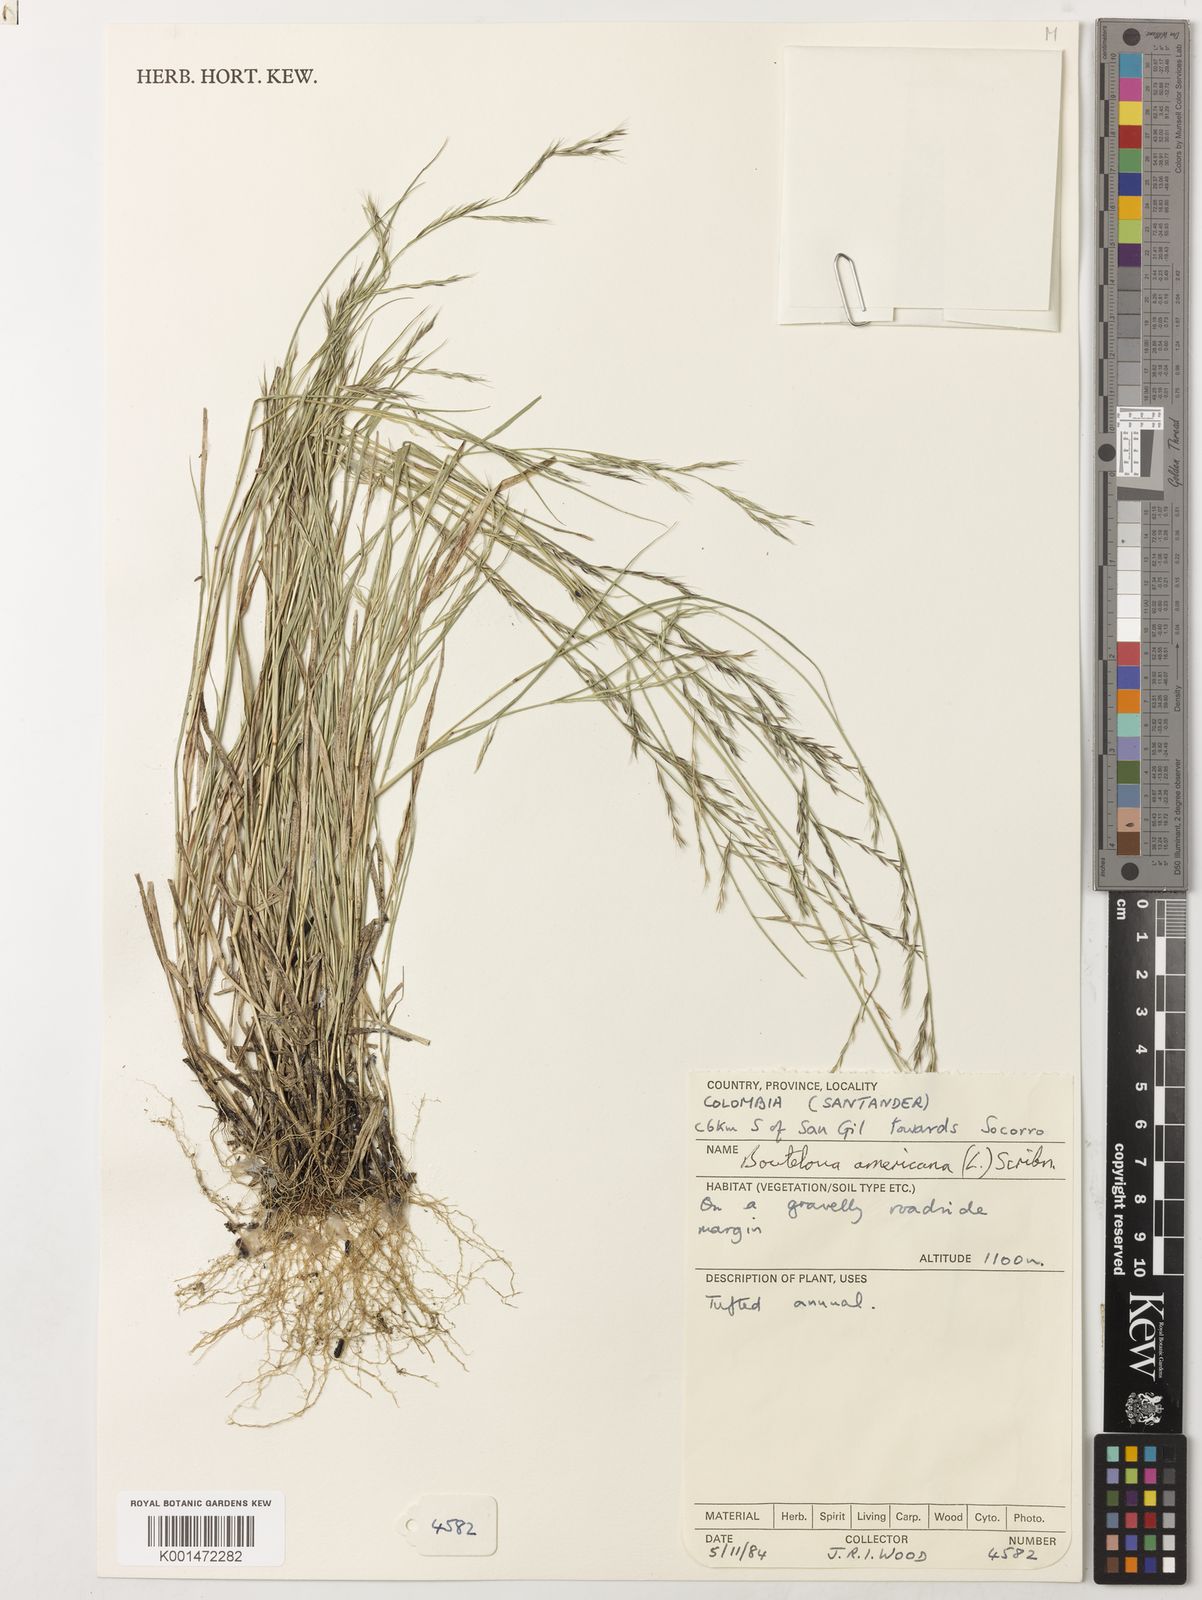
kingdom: Plantae
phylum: Tracheophyta
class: Liliopsida
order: Poales
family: Poaceae
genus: Bouteloua
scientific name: Bouteloua americana
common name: Mule grass
